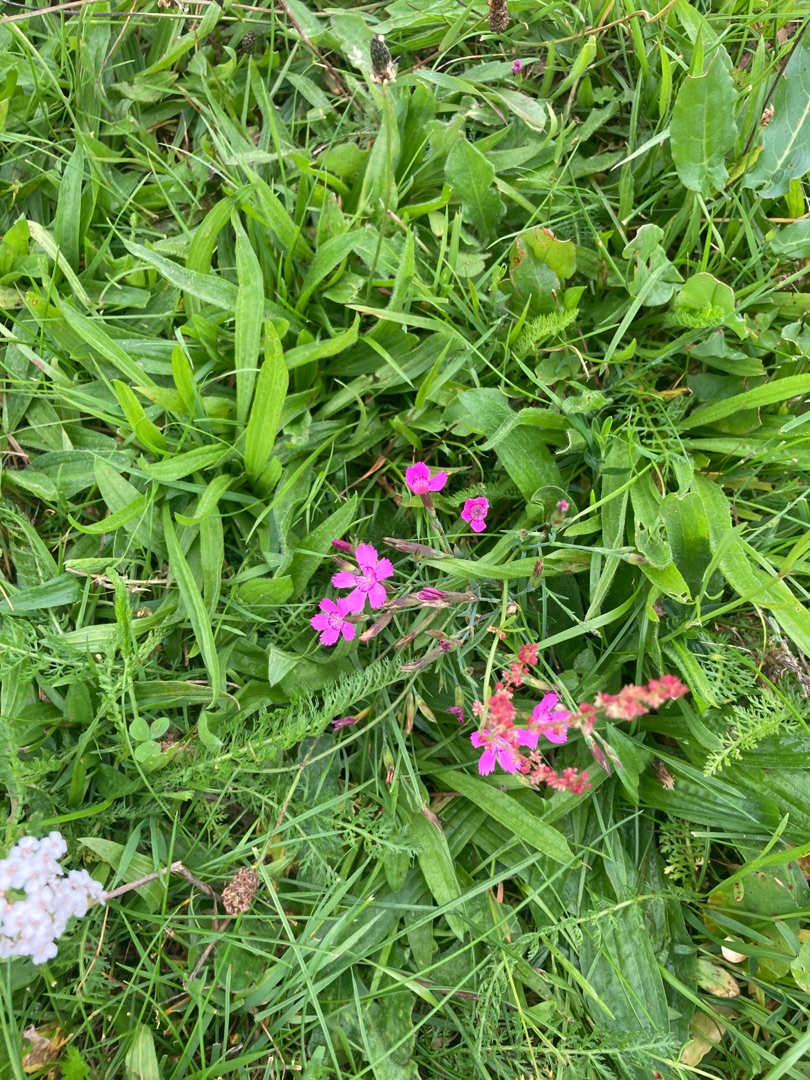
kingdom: Plantae
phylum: Tracheophyta
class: Magnoliopsida
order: Caryophyllales
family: Caryophyllaceae
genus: Dianthus
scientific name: Dianthus deltoides
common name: Bakke-nellike
